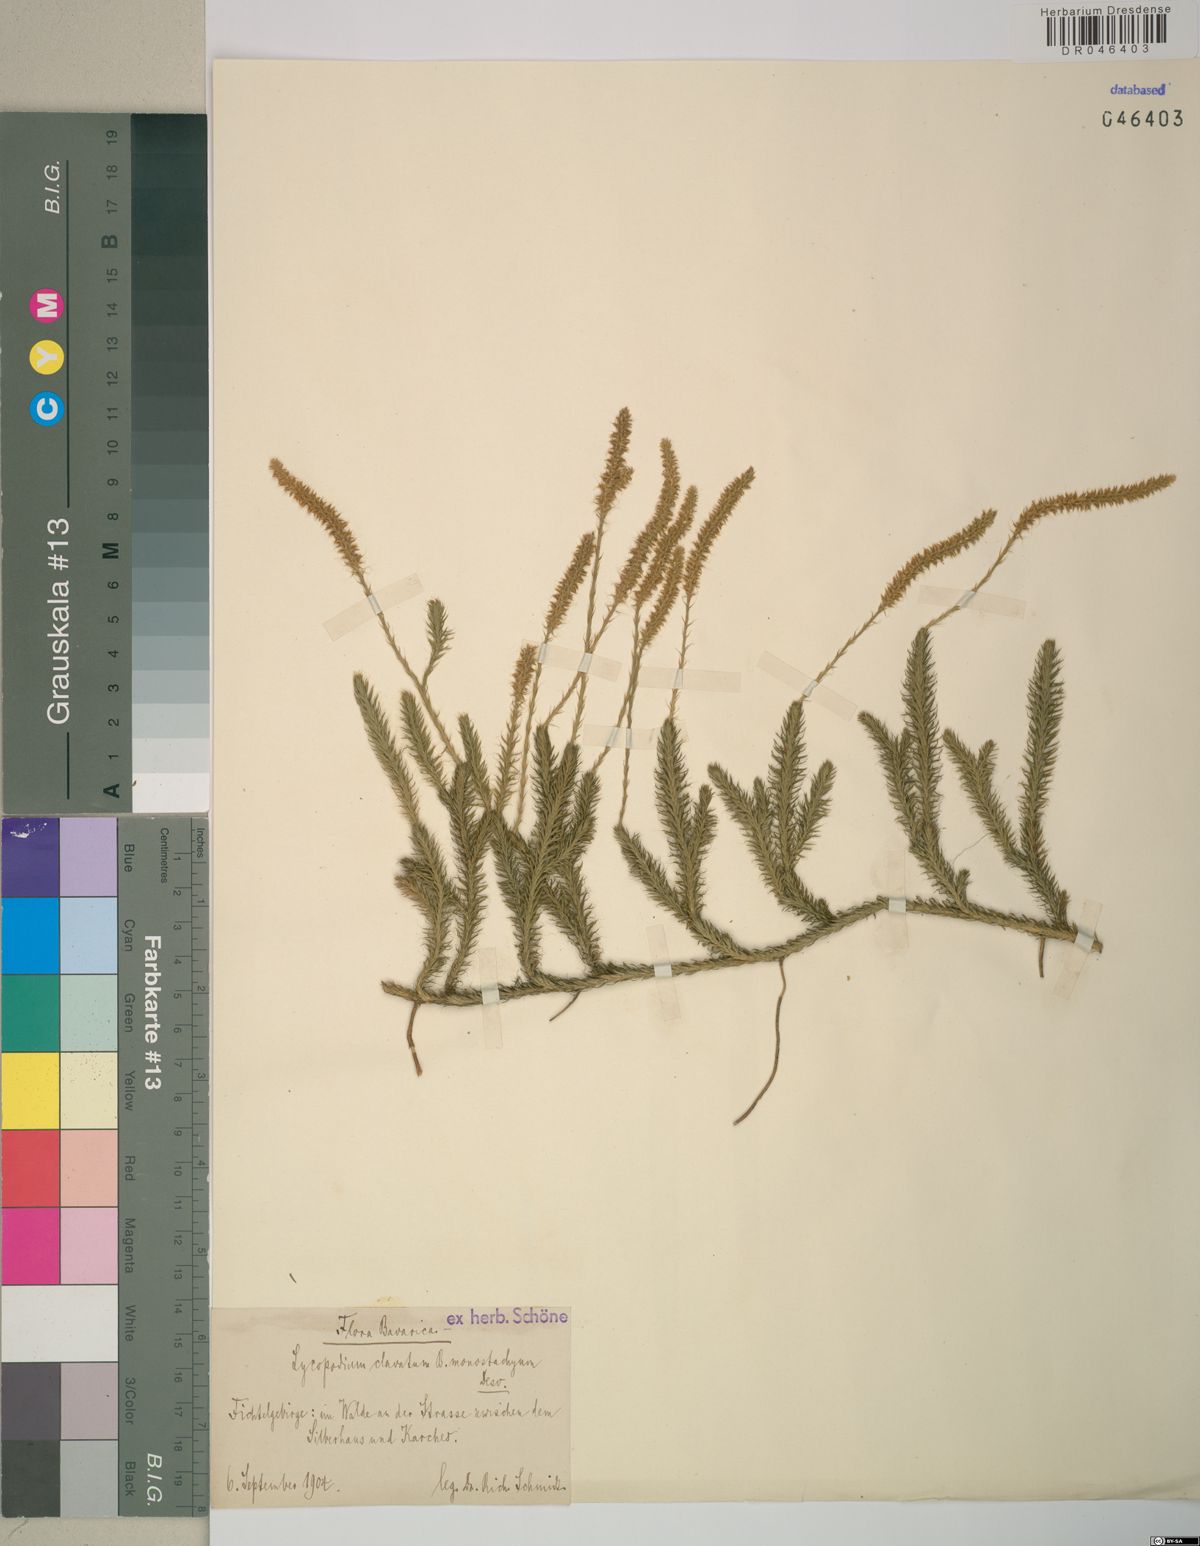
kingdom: Plantae
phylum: Tracheophyta
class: Lycopodiopsida
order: Lycopodiales
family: Lycopodiaceae
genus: Lycopodium
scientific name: Lycopodium clavatum
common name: Stag's-horn clubmoss
